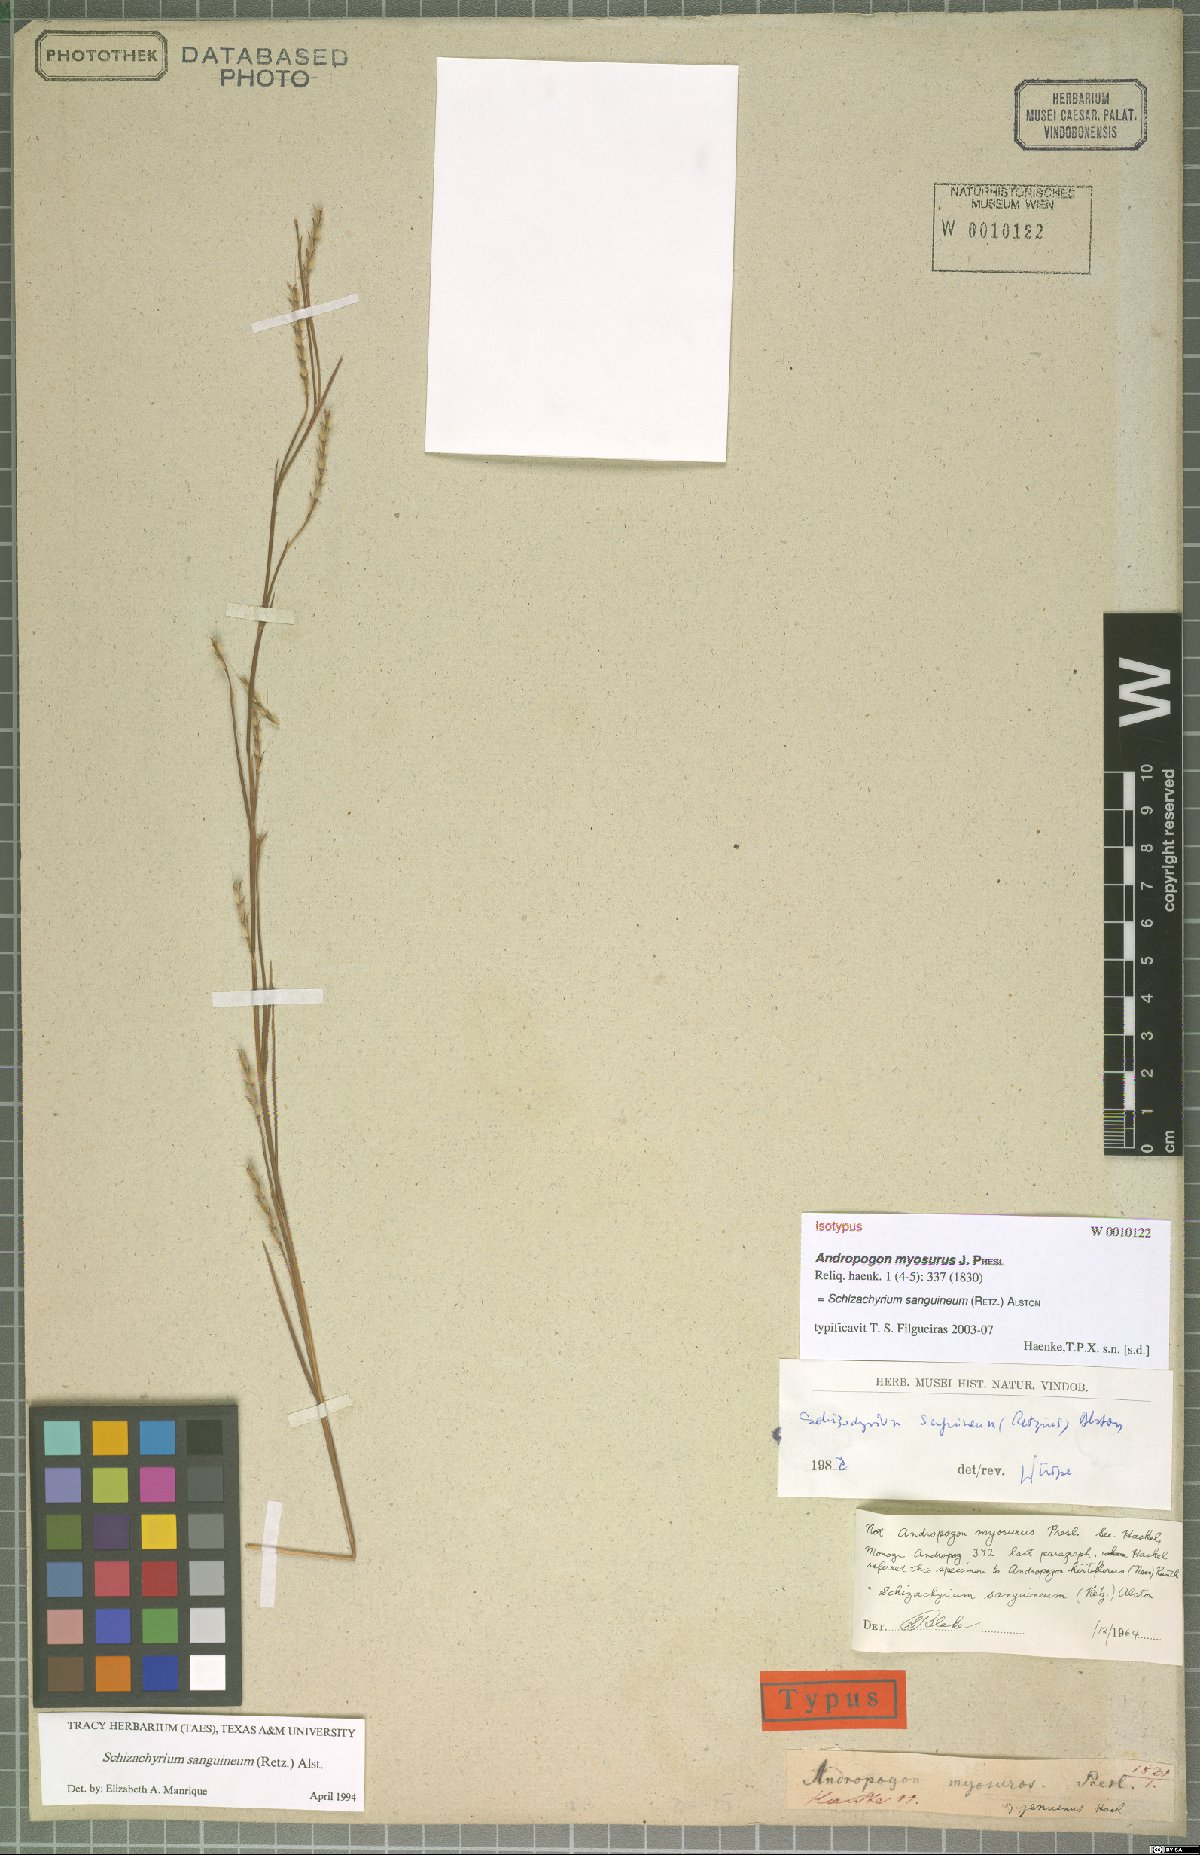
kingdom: Plantae
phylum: Tracheophyta
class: Liliopsida
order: Poales
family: Poaceae
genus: Schizachyrium
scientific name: Schizachyrium sanguineum
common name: Crimson bluestem
